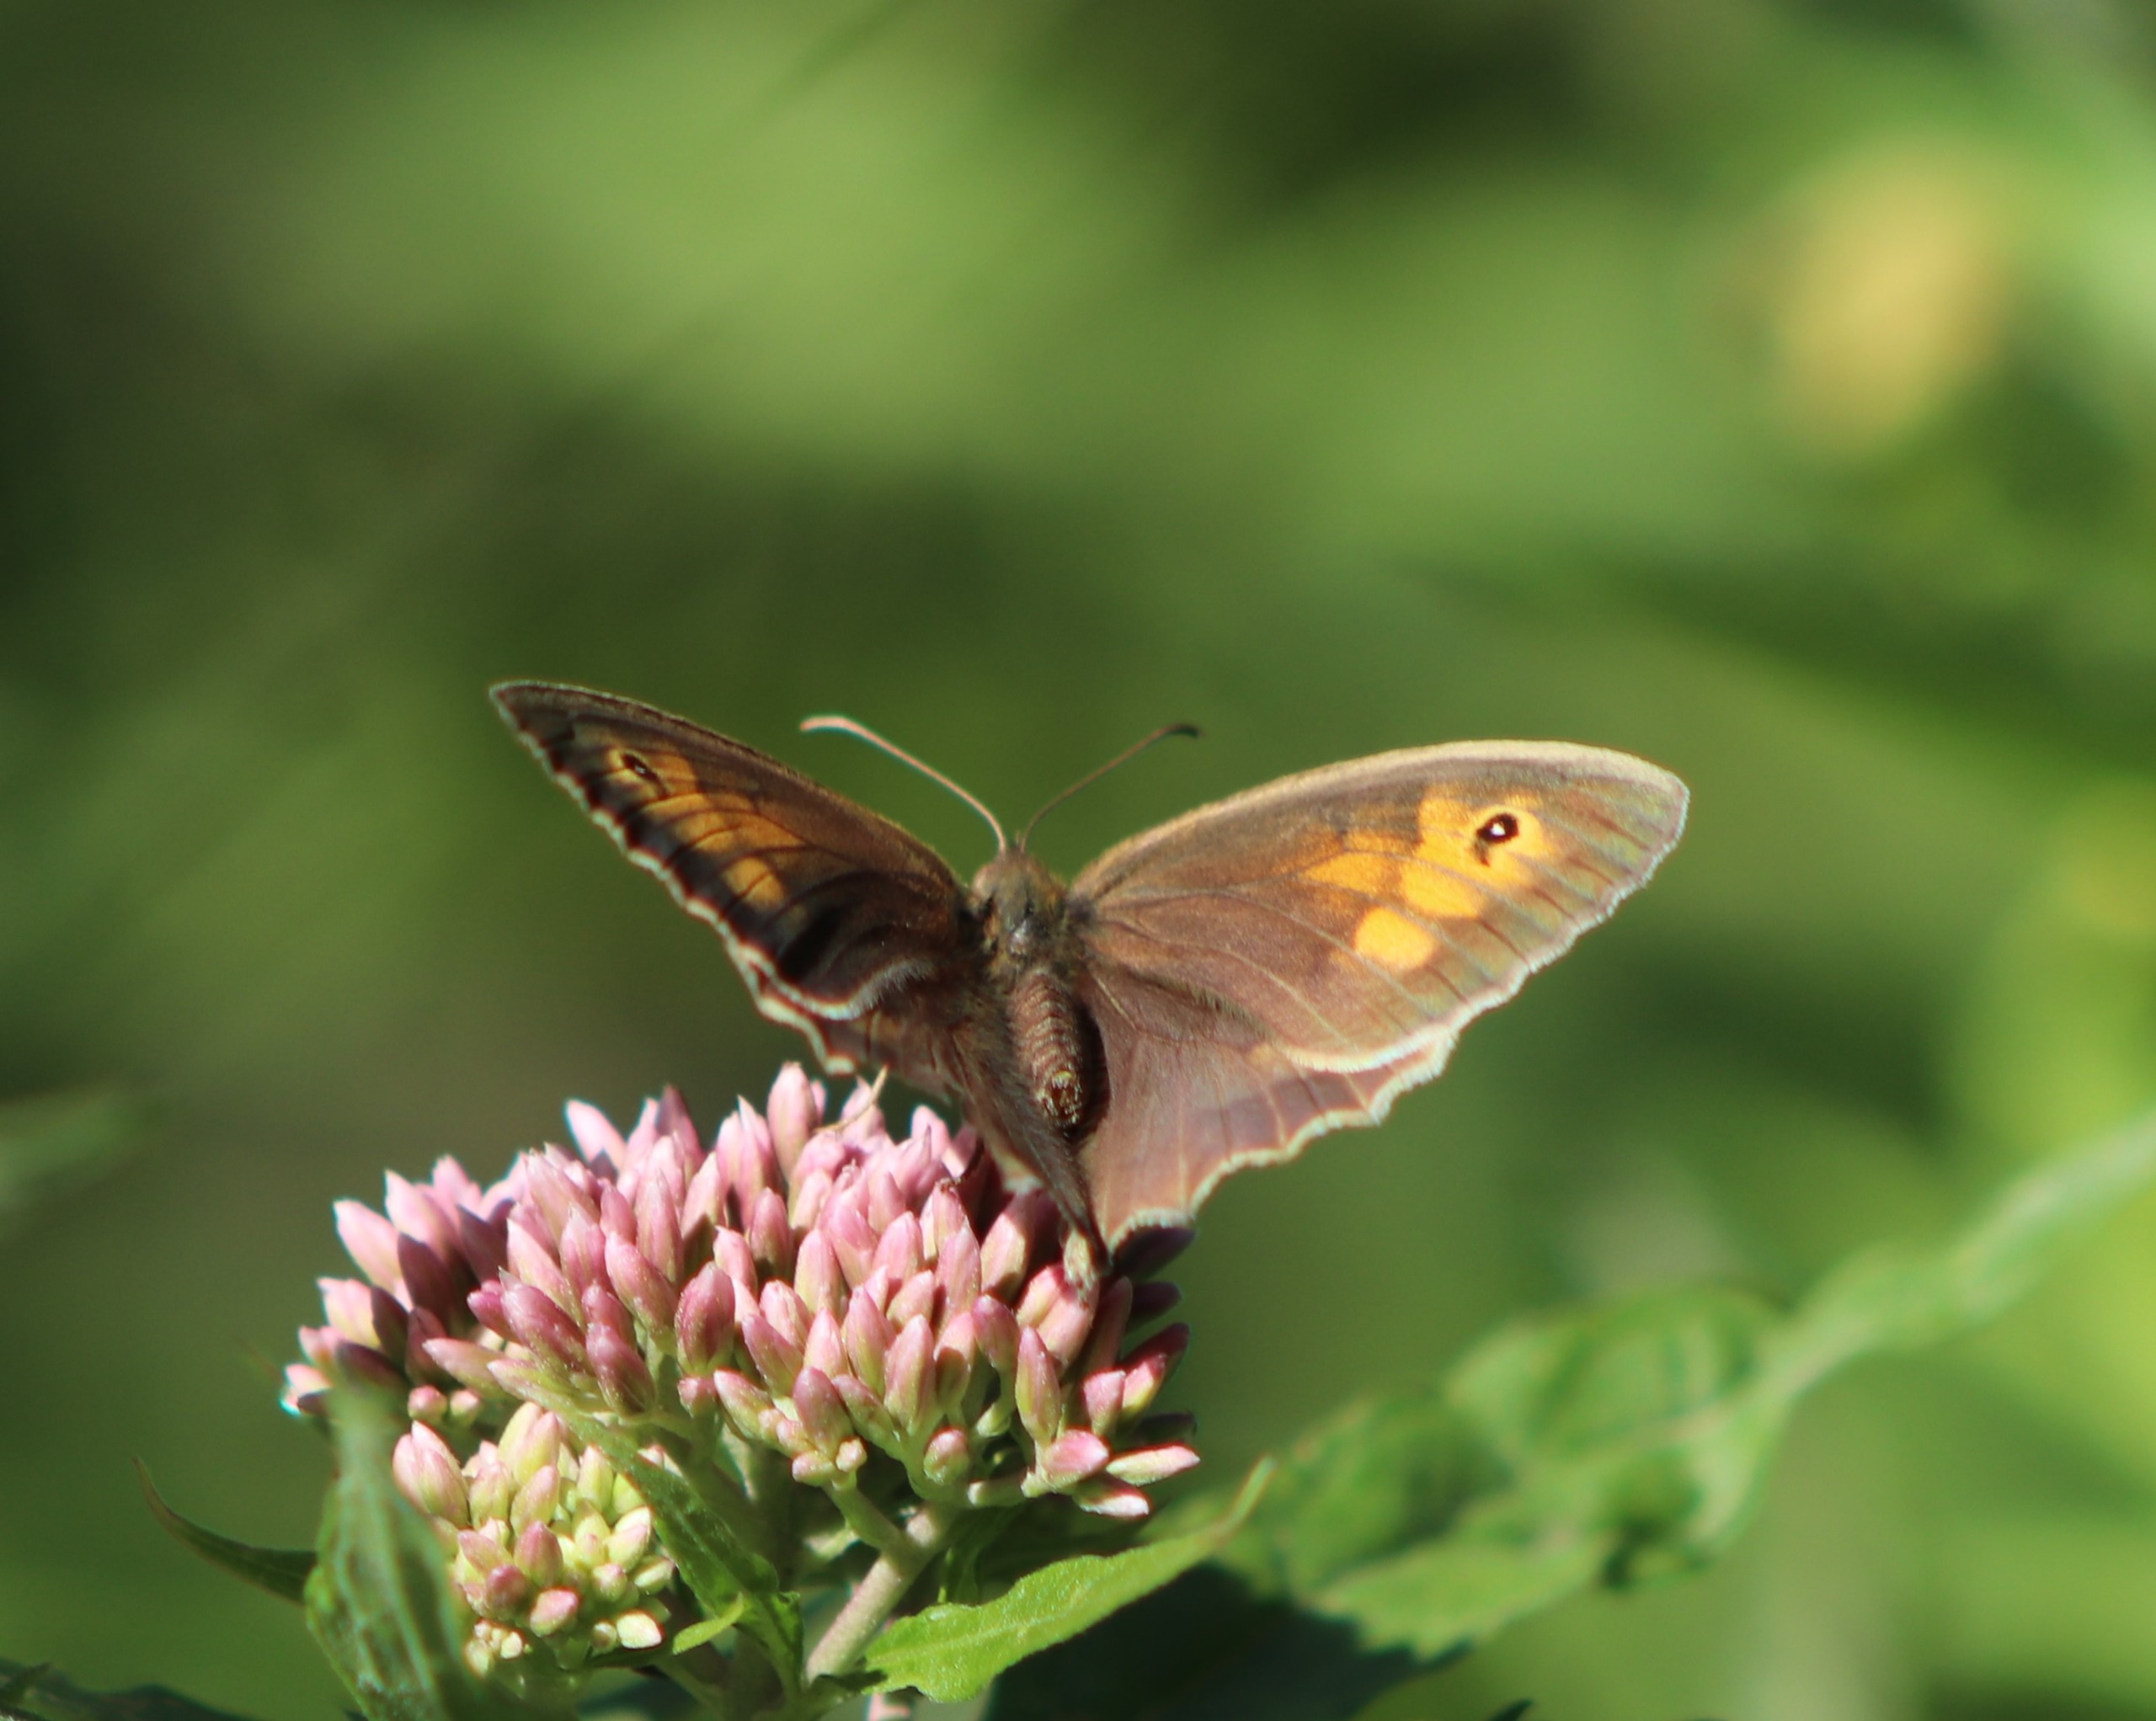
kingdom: Animalia
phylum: Arthropoda
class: Insecta
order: Lepidoptera
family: Nymphalidae
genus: Maniola
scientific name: Maniola jurtina
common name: Græsrandøje
